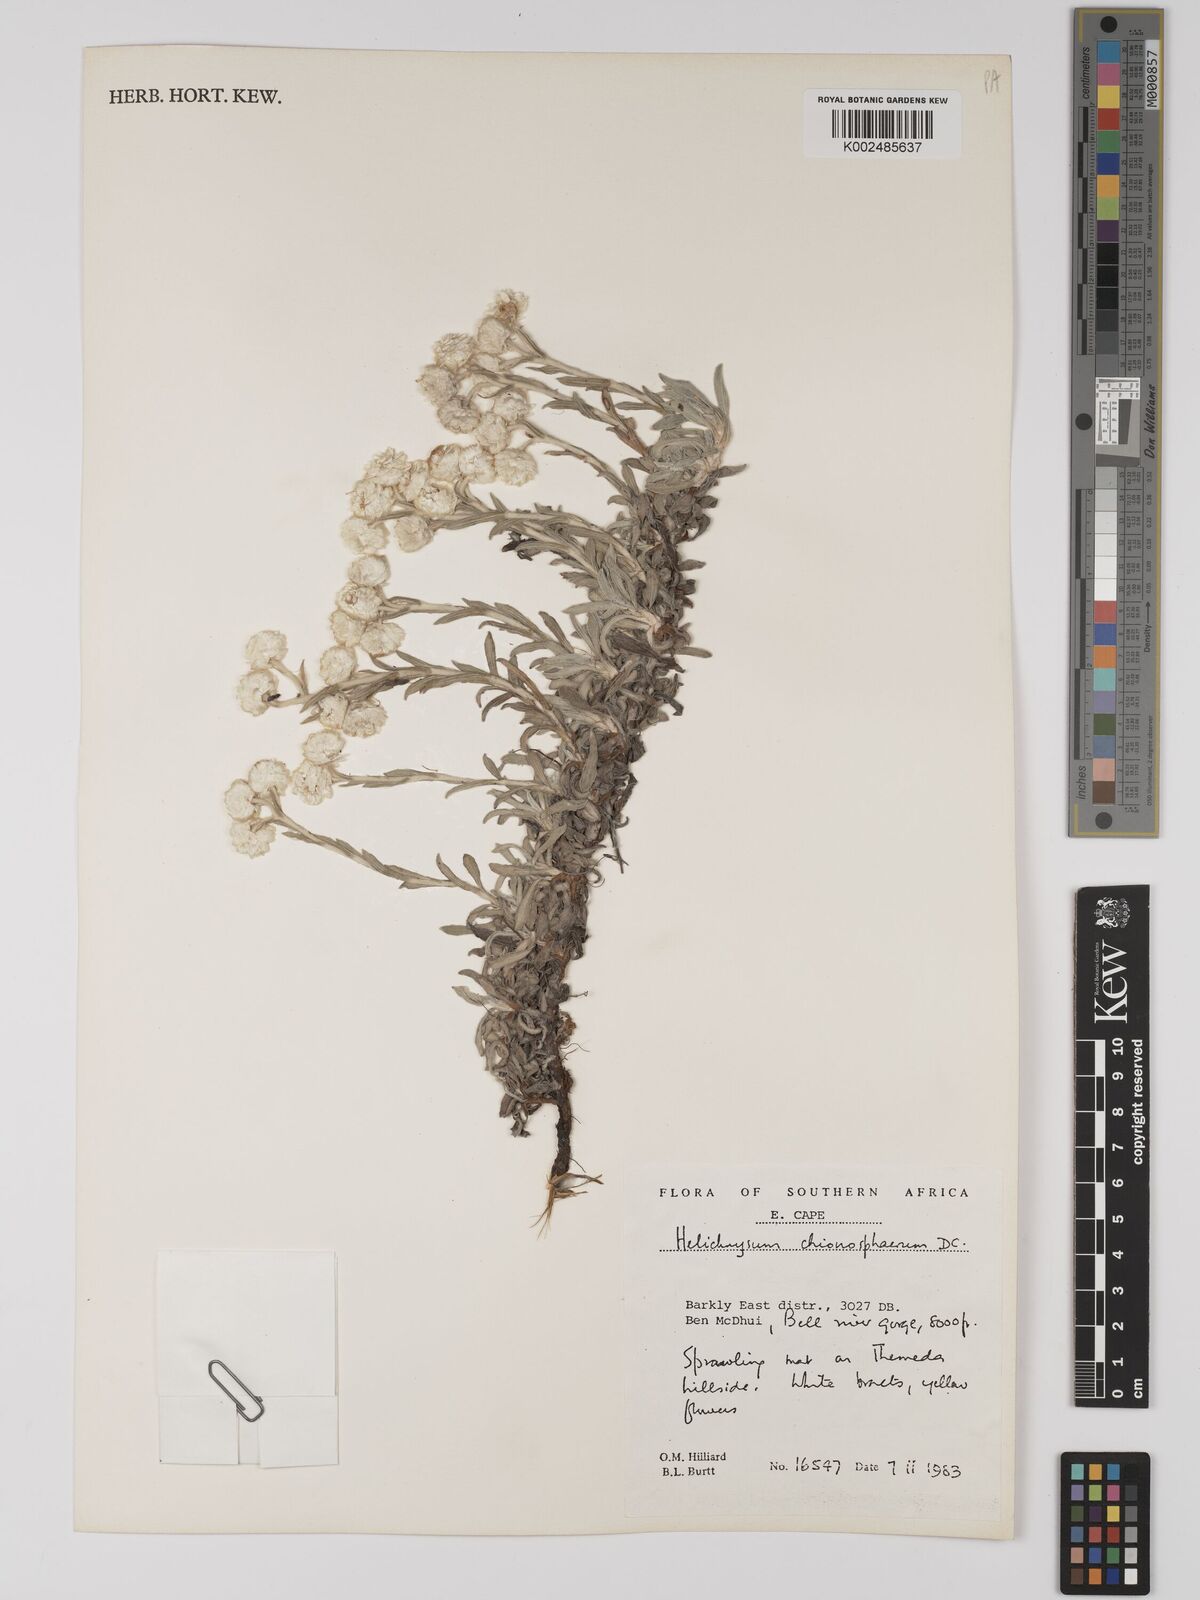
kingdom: Plantae
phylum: Tracheophyta
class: Magnoliopsida
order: Asterales
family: Asteraceae
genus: Helichrysum
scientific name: Helichrysum chionosphaerum
